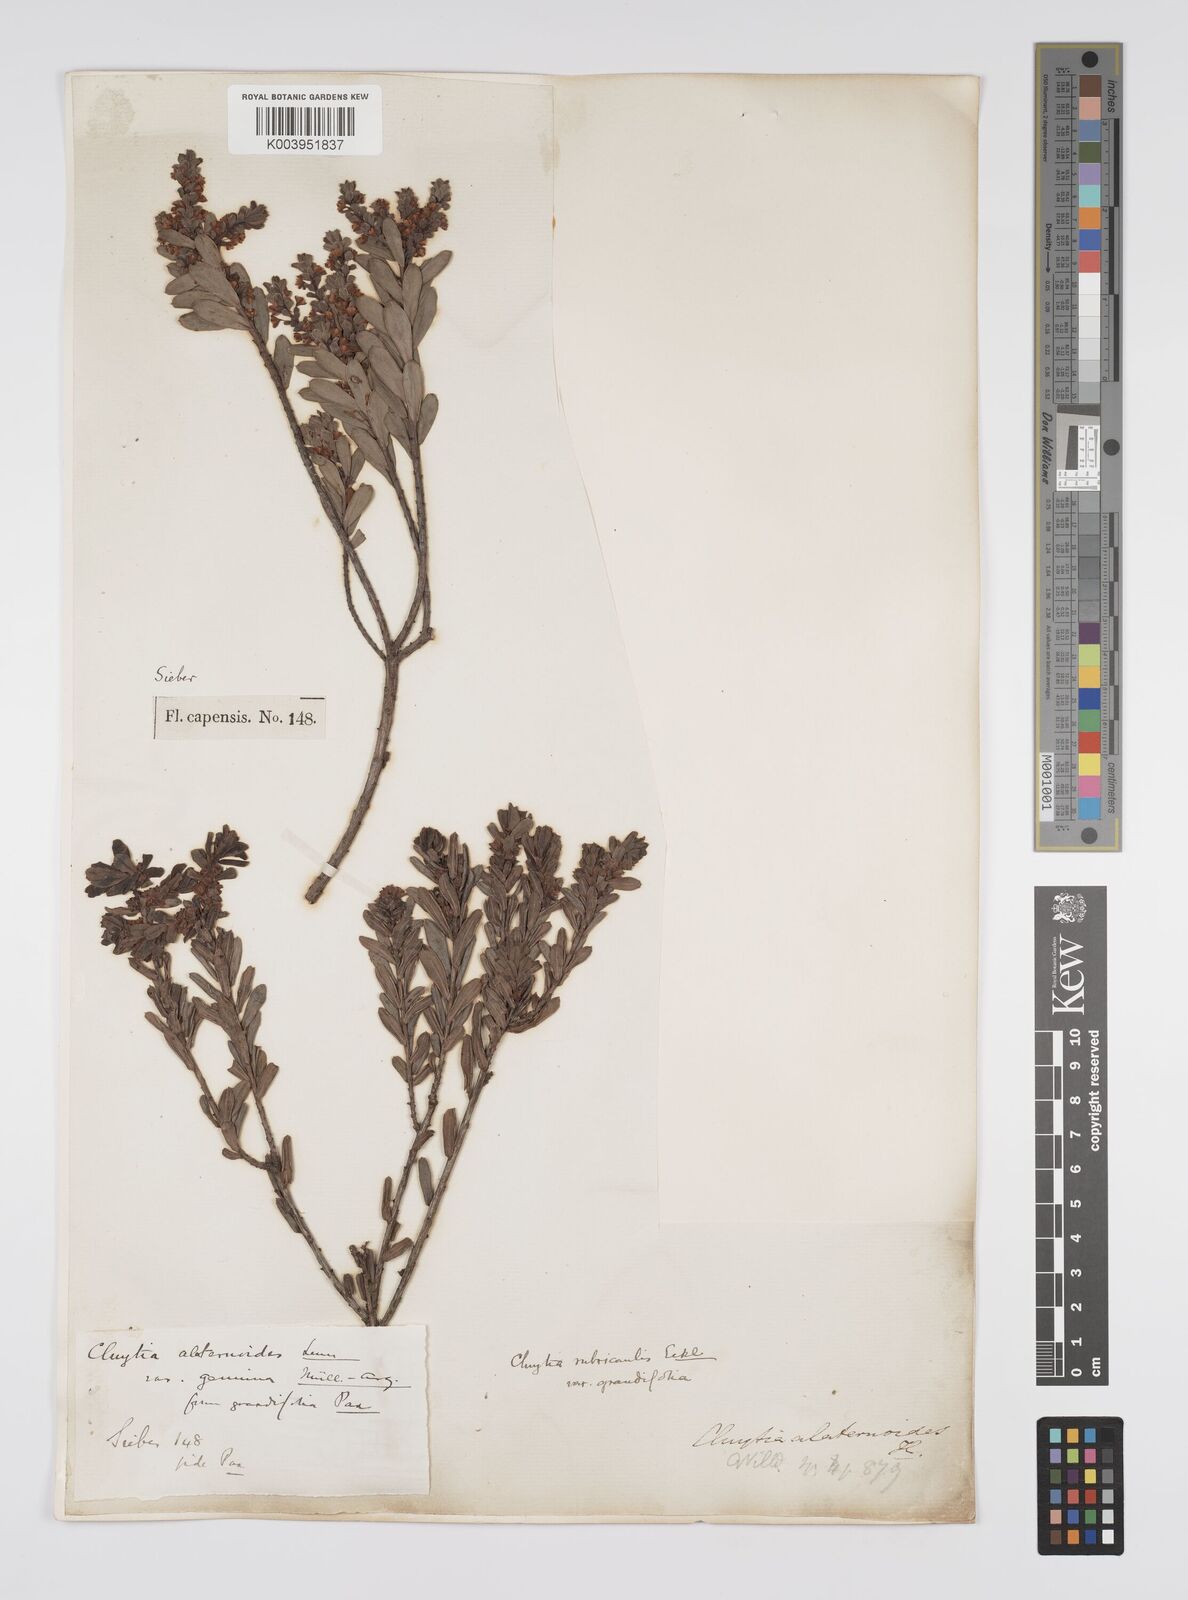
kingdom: Plantae
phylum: Tracheophyta
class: Magnoliopsida
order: Malpighiales
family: Peraceae
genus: Clutia
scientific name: Clutia rubricaulis
